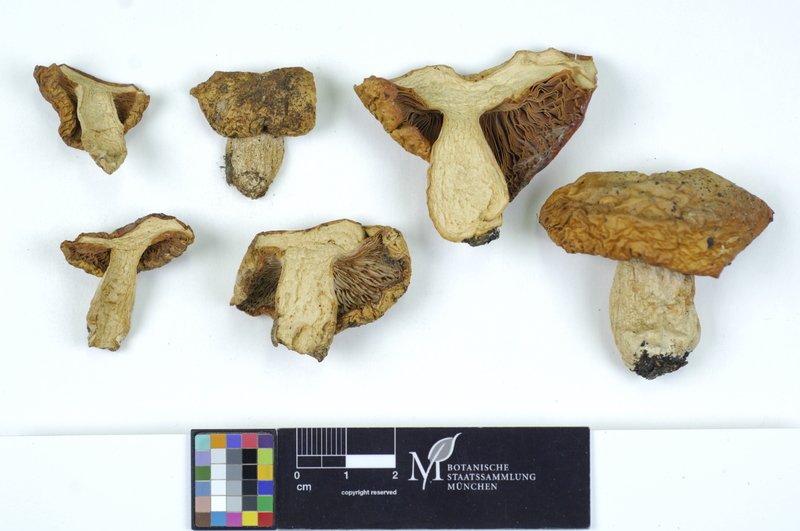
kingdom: Fungi
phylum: Basidiomycota
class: Agaricomycetes
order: Russulales
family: Russulaceae
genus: Russula
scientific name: Russula exalbicans
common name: Bleached brittlegill
